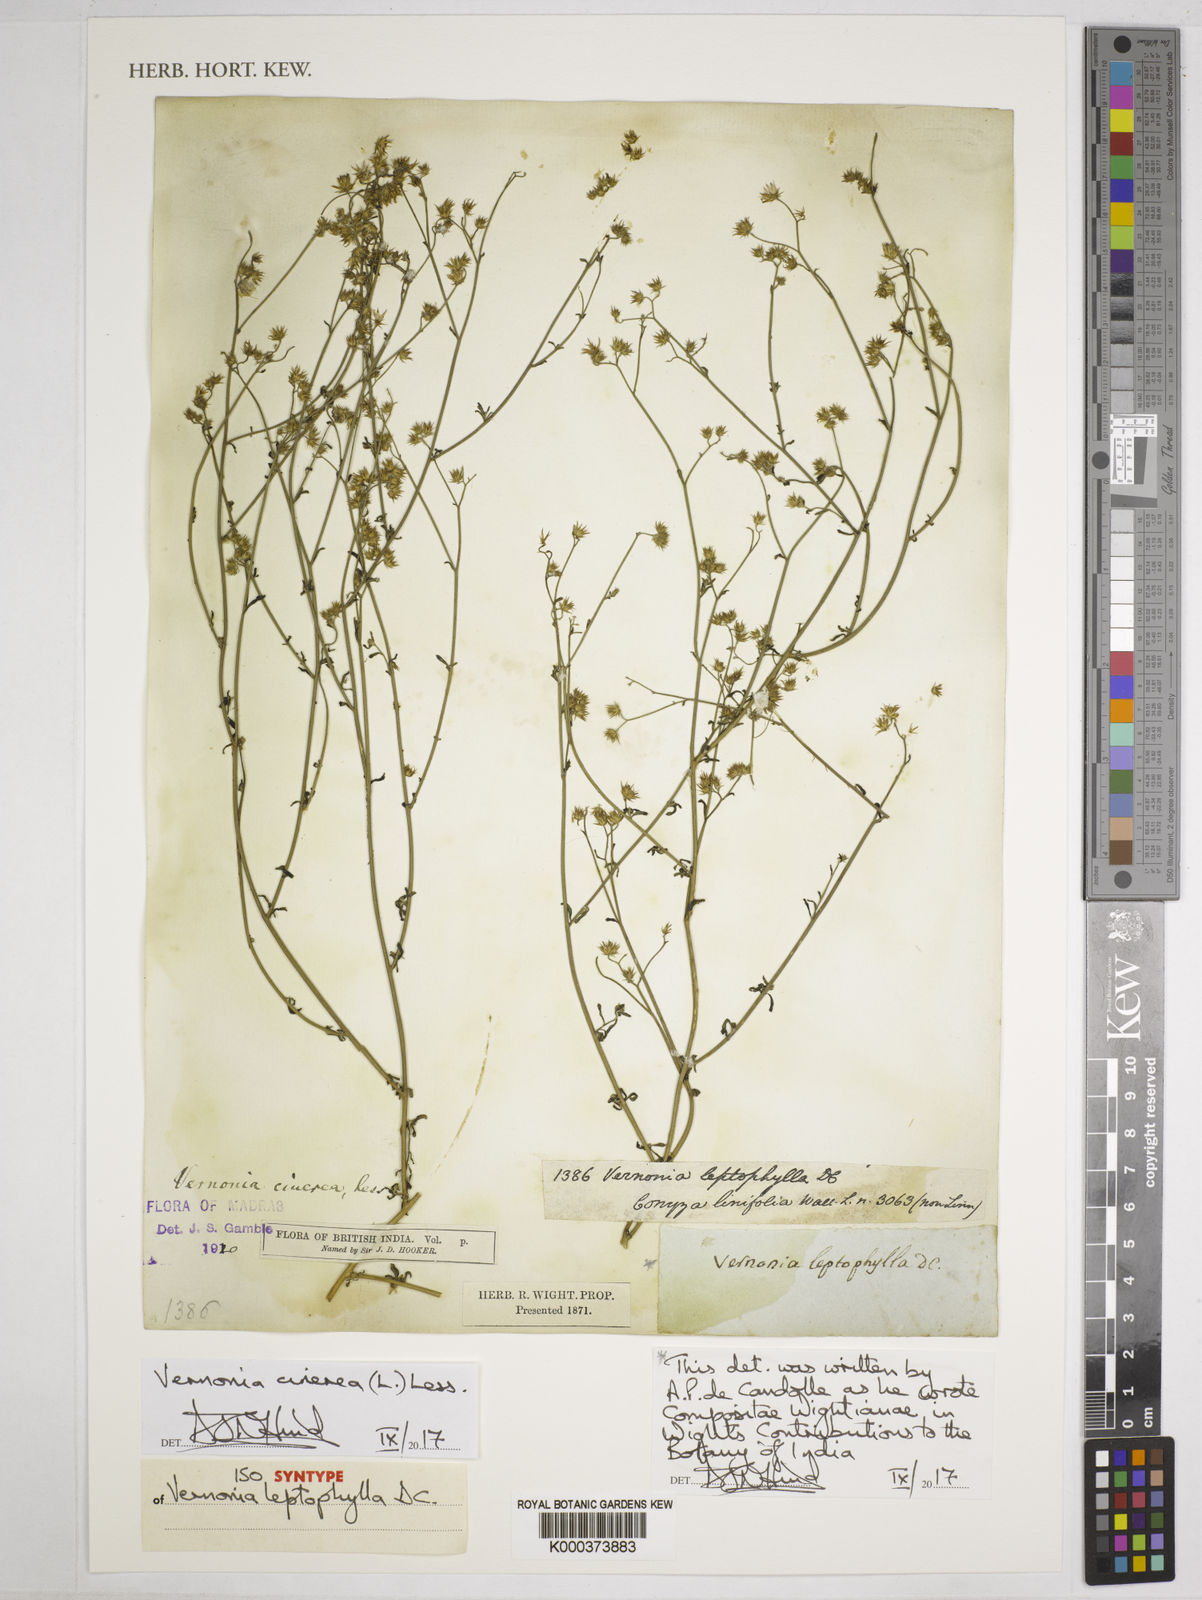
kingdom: Plantae
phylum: Tracheophyta
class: Magnoliopsida
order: Asterales
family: Asteraceae
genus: Cyanthillium
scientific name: Cyanthillium cinereum
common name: Little ironweed
